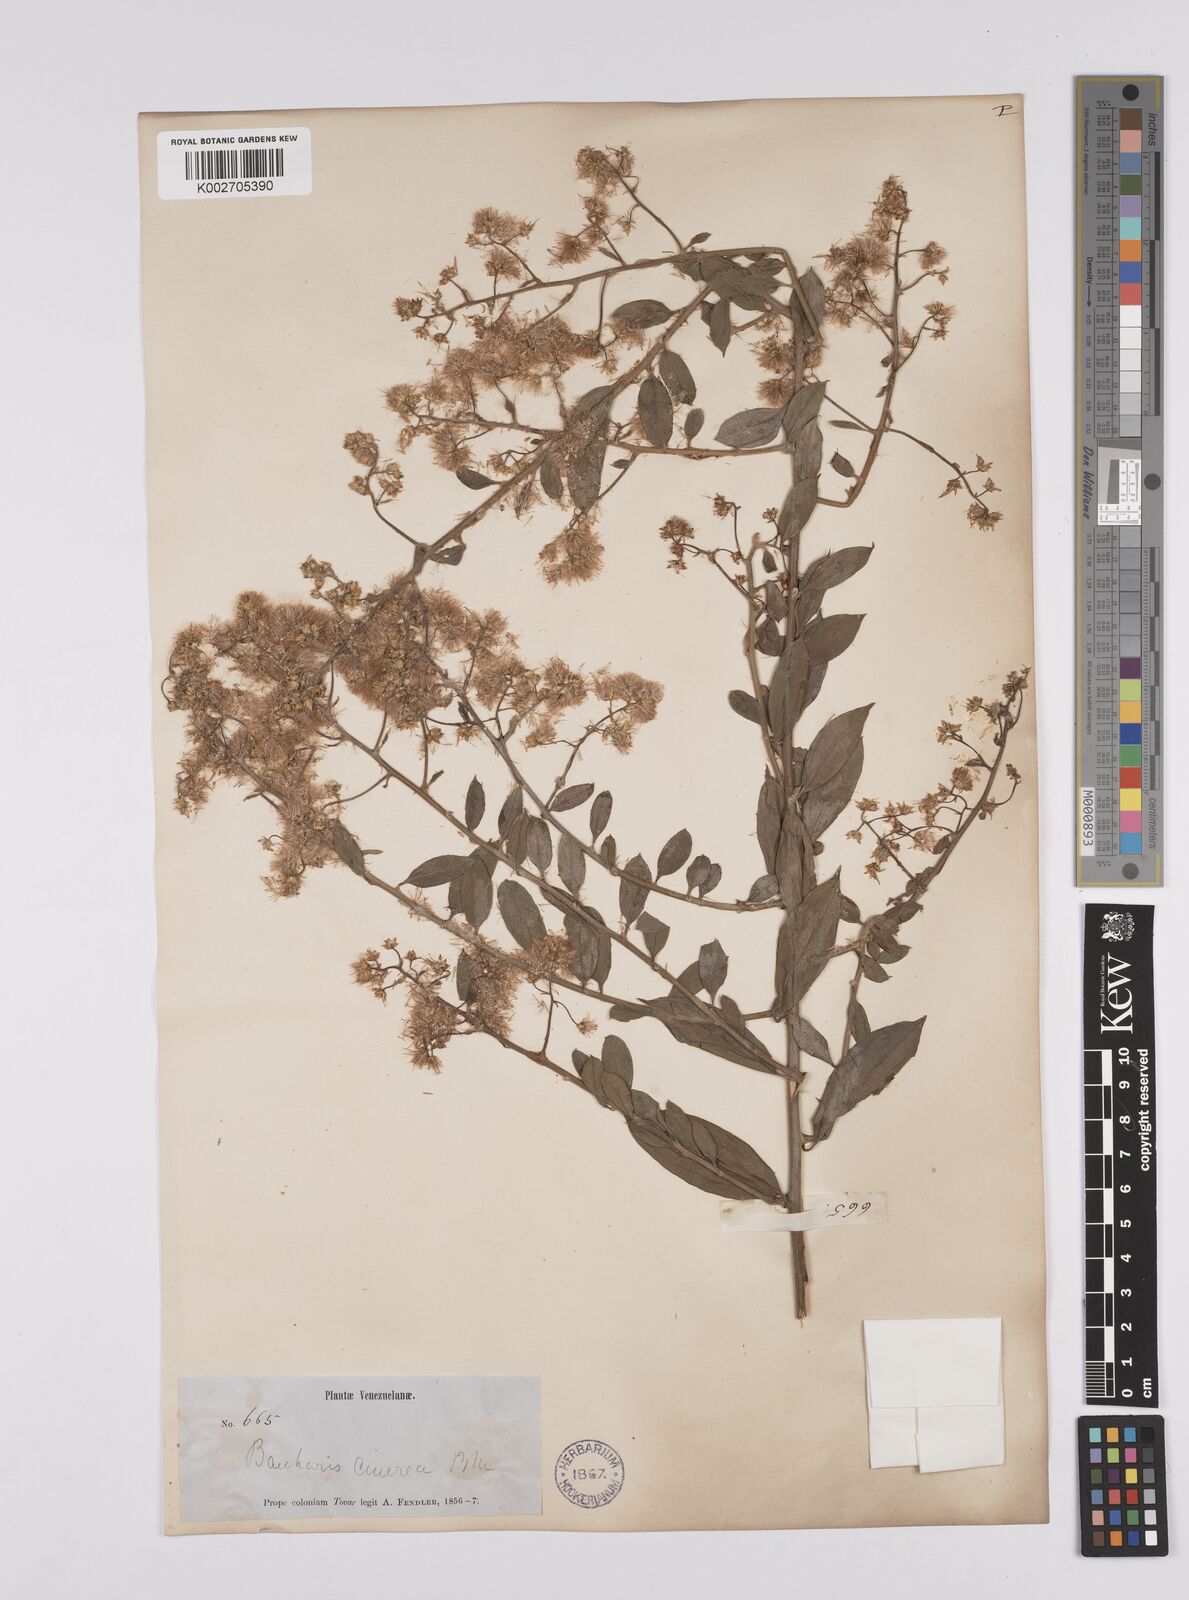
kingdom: Plantae
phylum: Tracheophyta
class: Magnoliopsida
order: Asterales
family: Asteraceae
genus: Baccharis
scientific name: Baccharis trinervis
